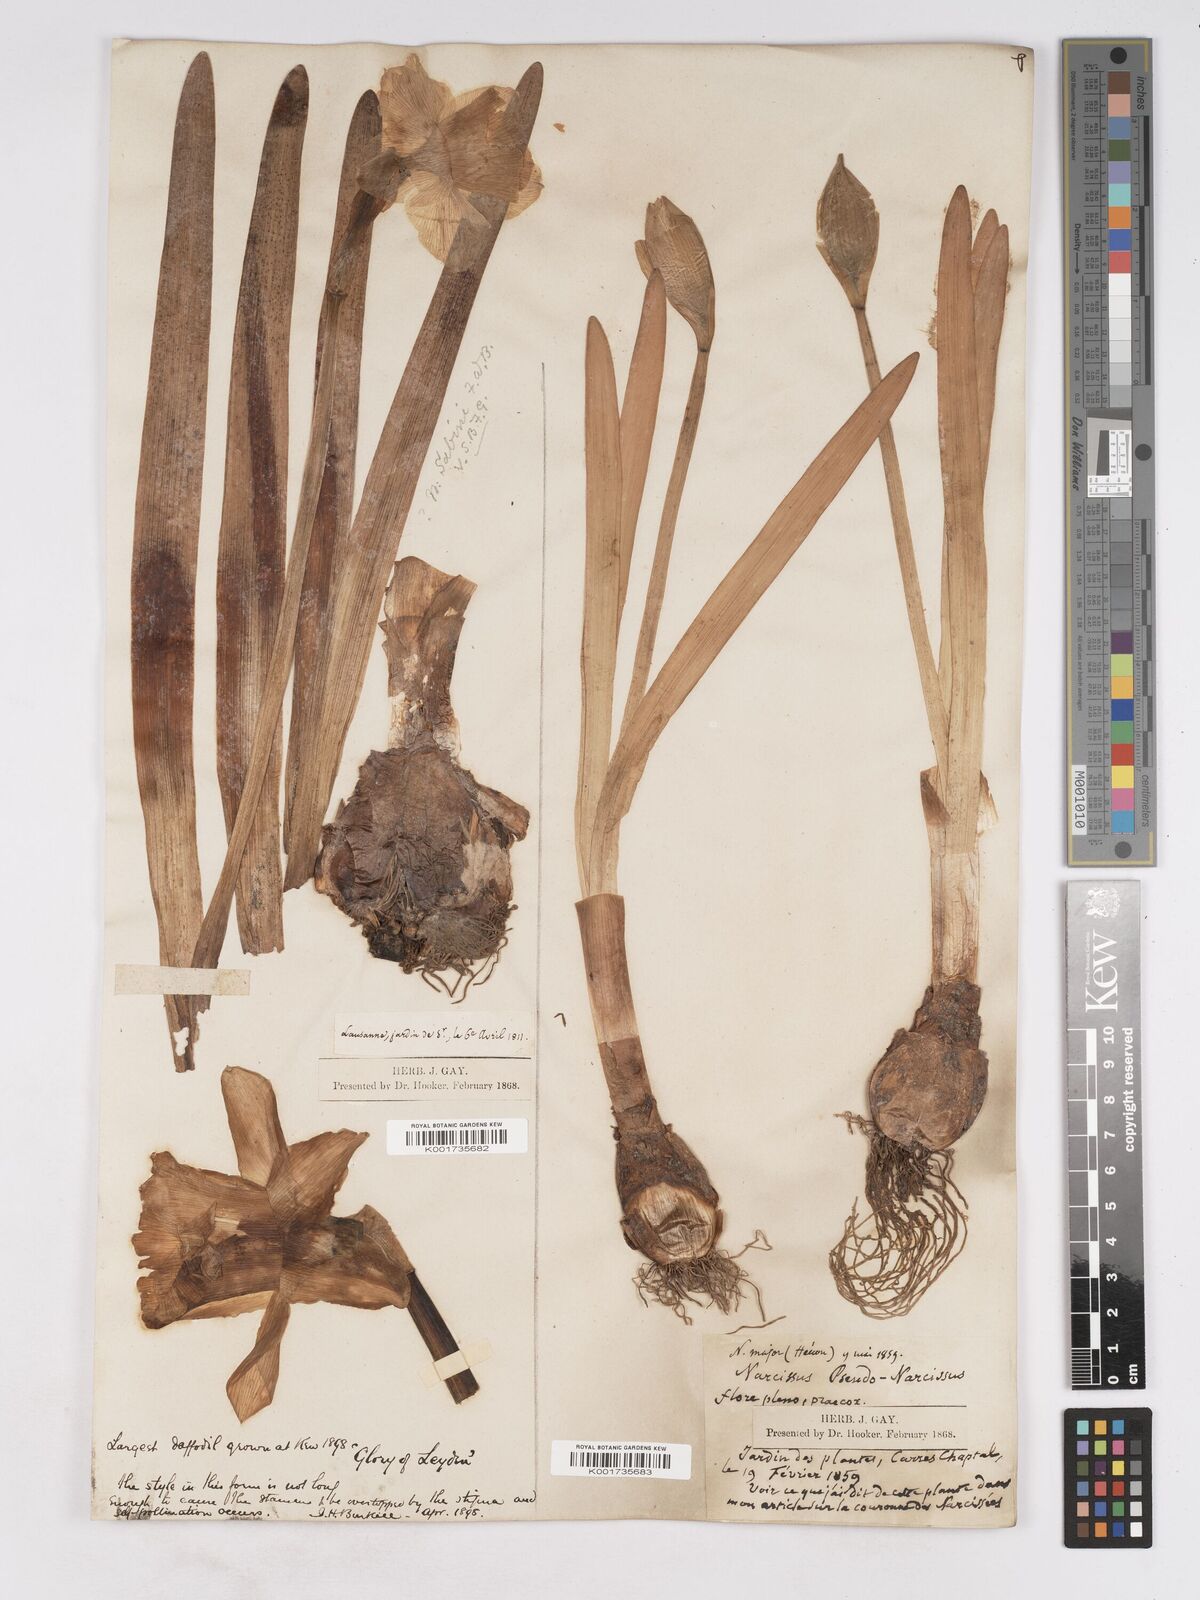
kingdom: Plantae
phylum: Tracheophyta
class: Liliopsida
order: Asparagales
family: Amaryllidaceae
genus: Narcissus
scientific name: Narcissus pseudonarcissus
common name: Daffodil
